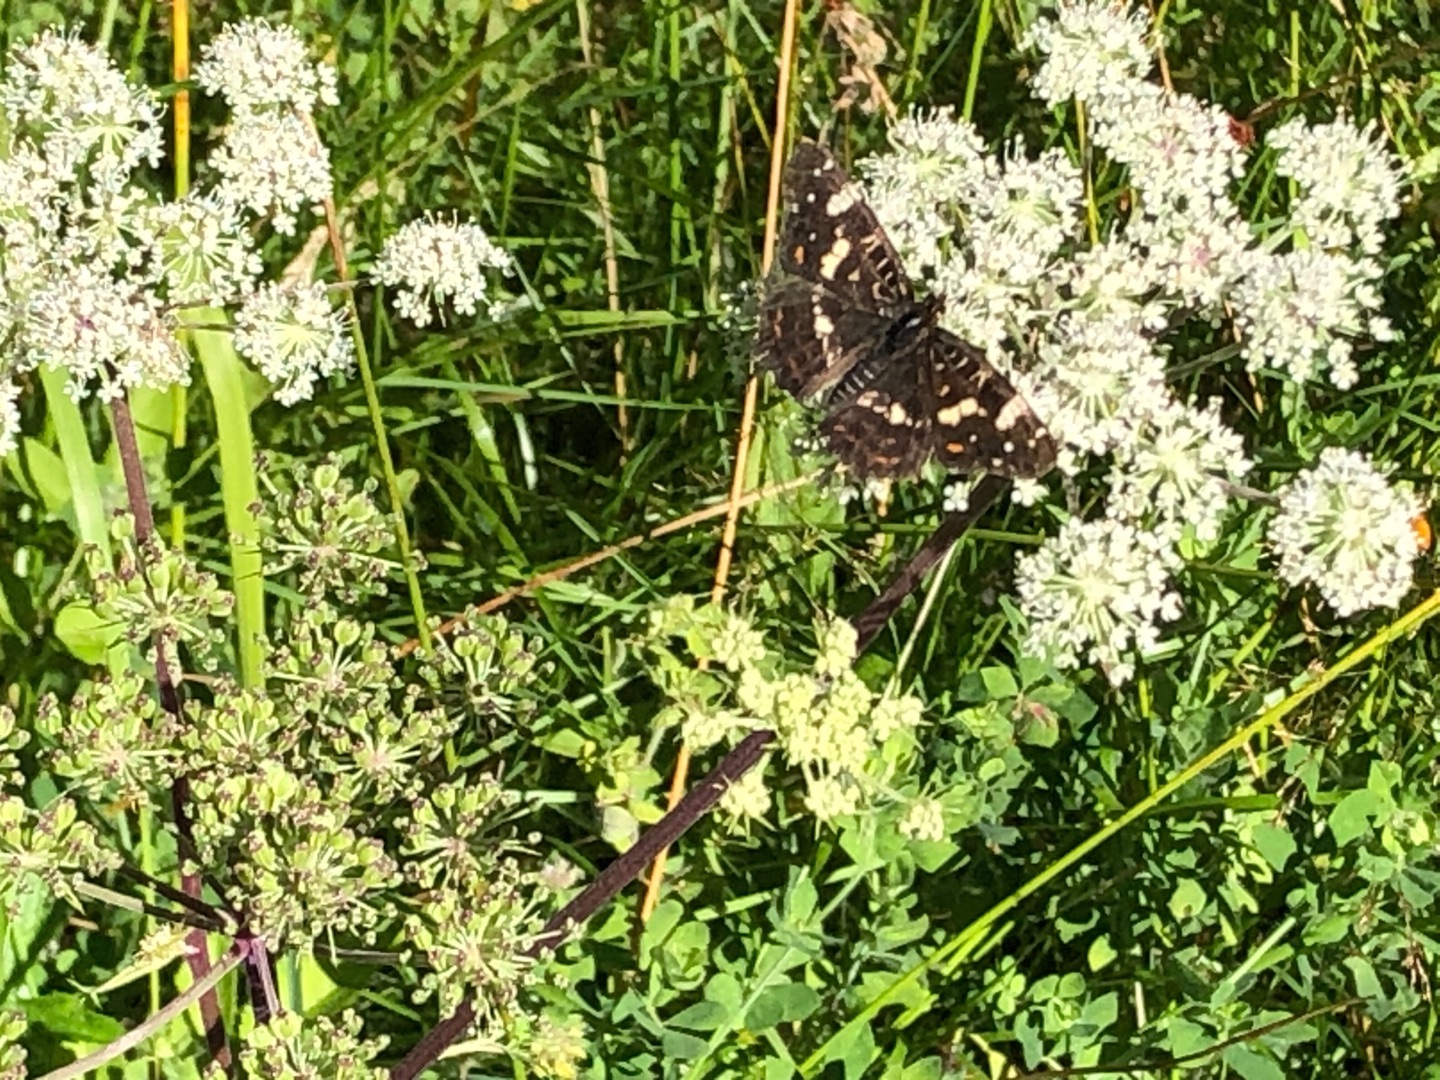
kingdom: Animalia
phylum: Arthropoda
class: Insecta
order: Lepidoptera
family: Nymphalidae
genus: Araschnia
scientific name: Araschnia levana
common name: Nældesommerfugl
